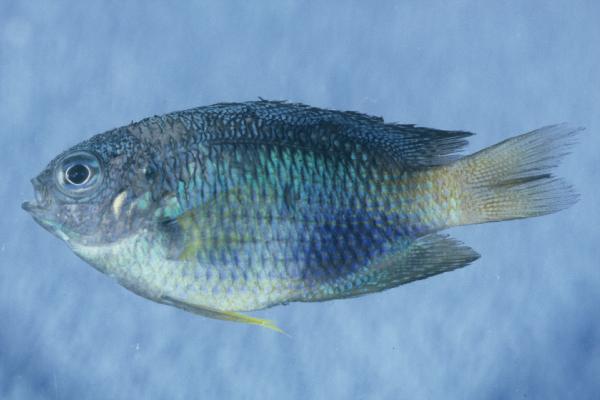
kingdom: Animalia
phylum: Chordata
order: Perciformes
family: Pomacentridae
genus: Pomacentrus
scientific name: Pomacentrus caeruleus
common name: Caerulean damsel
